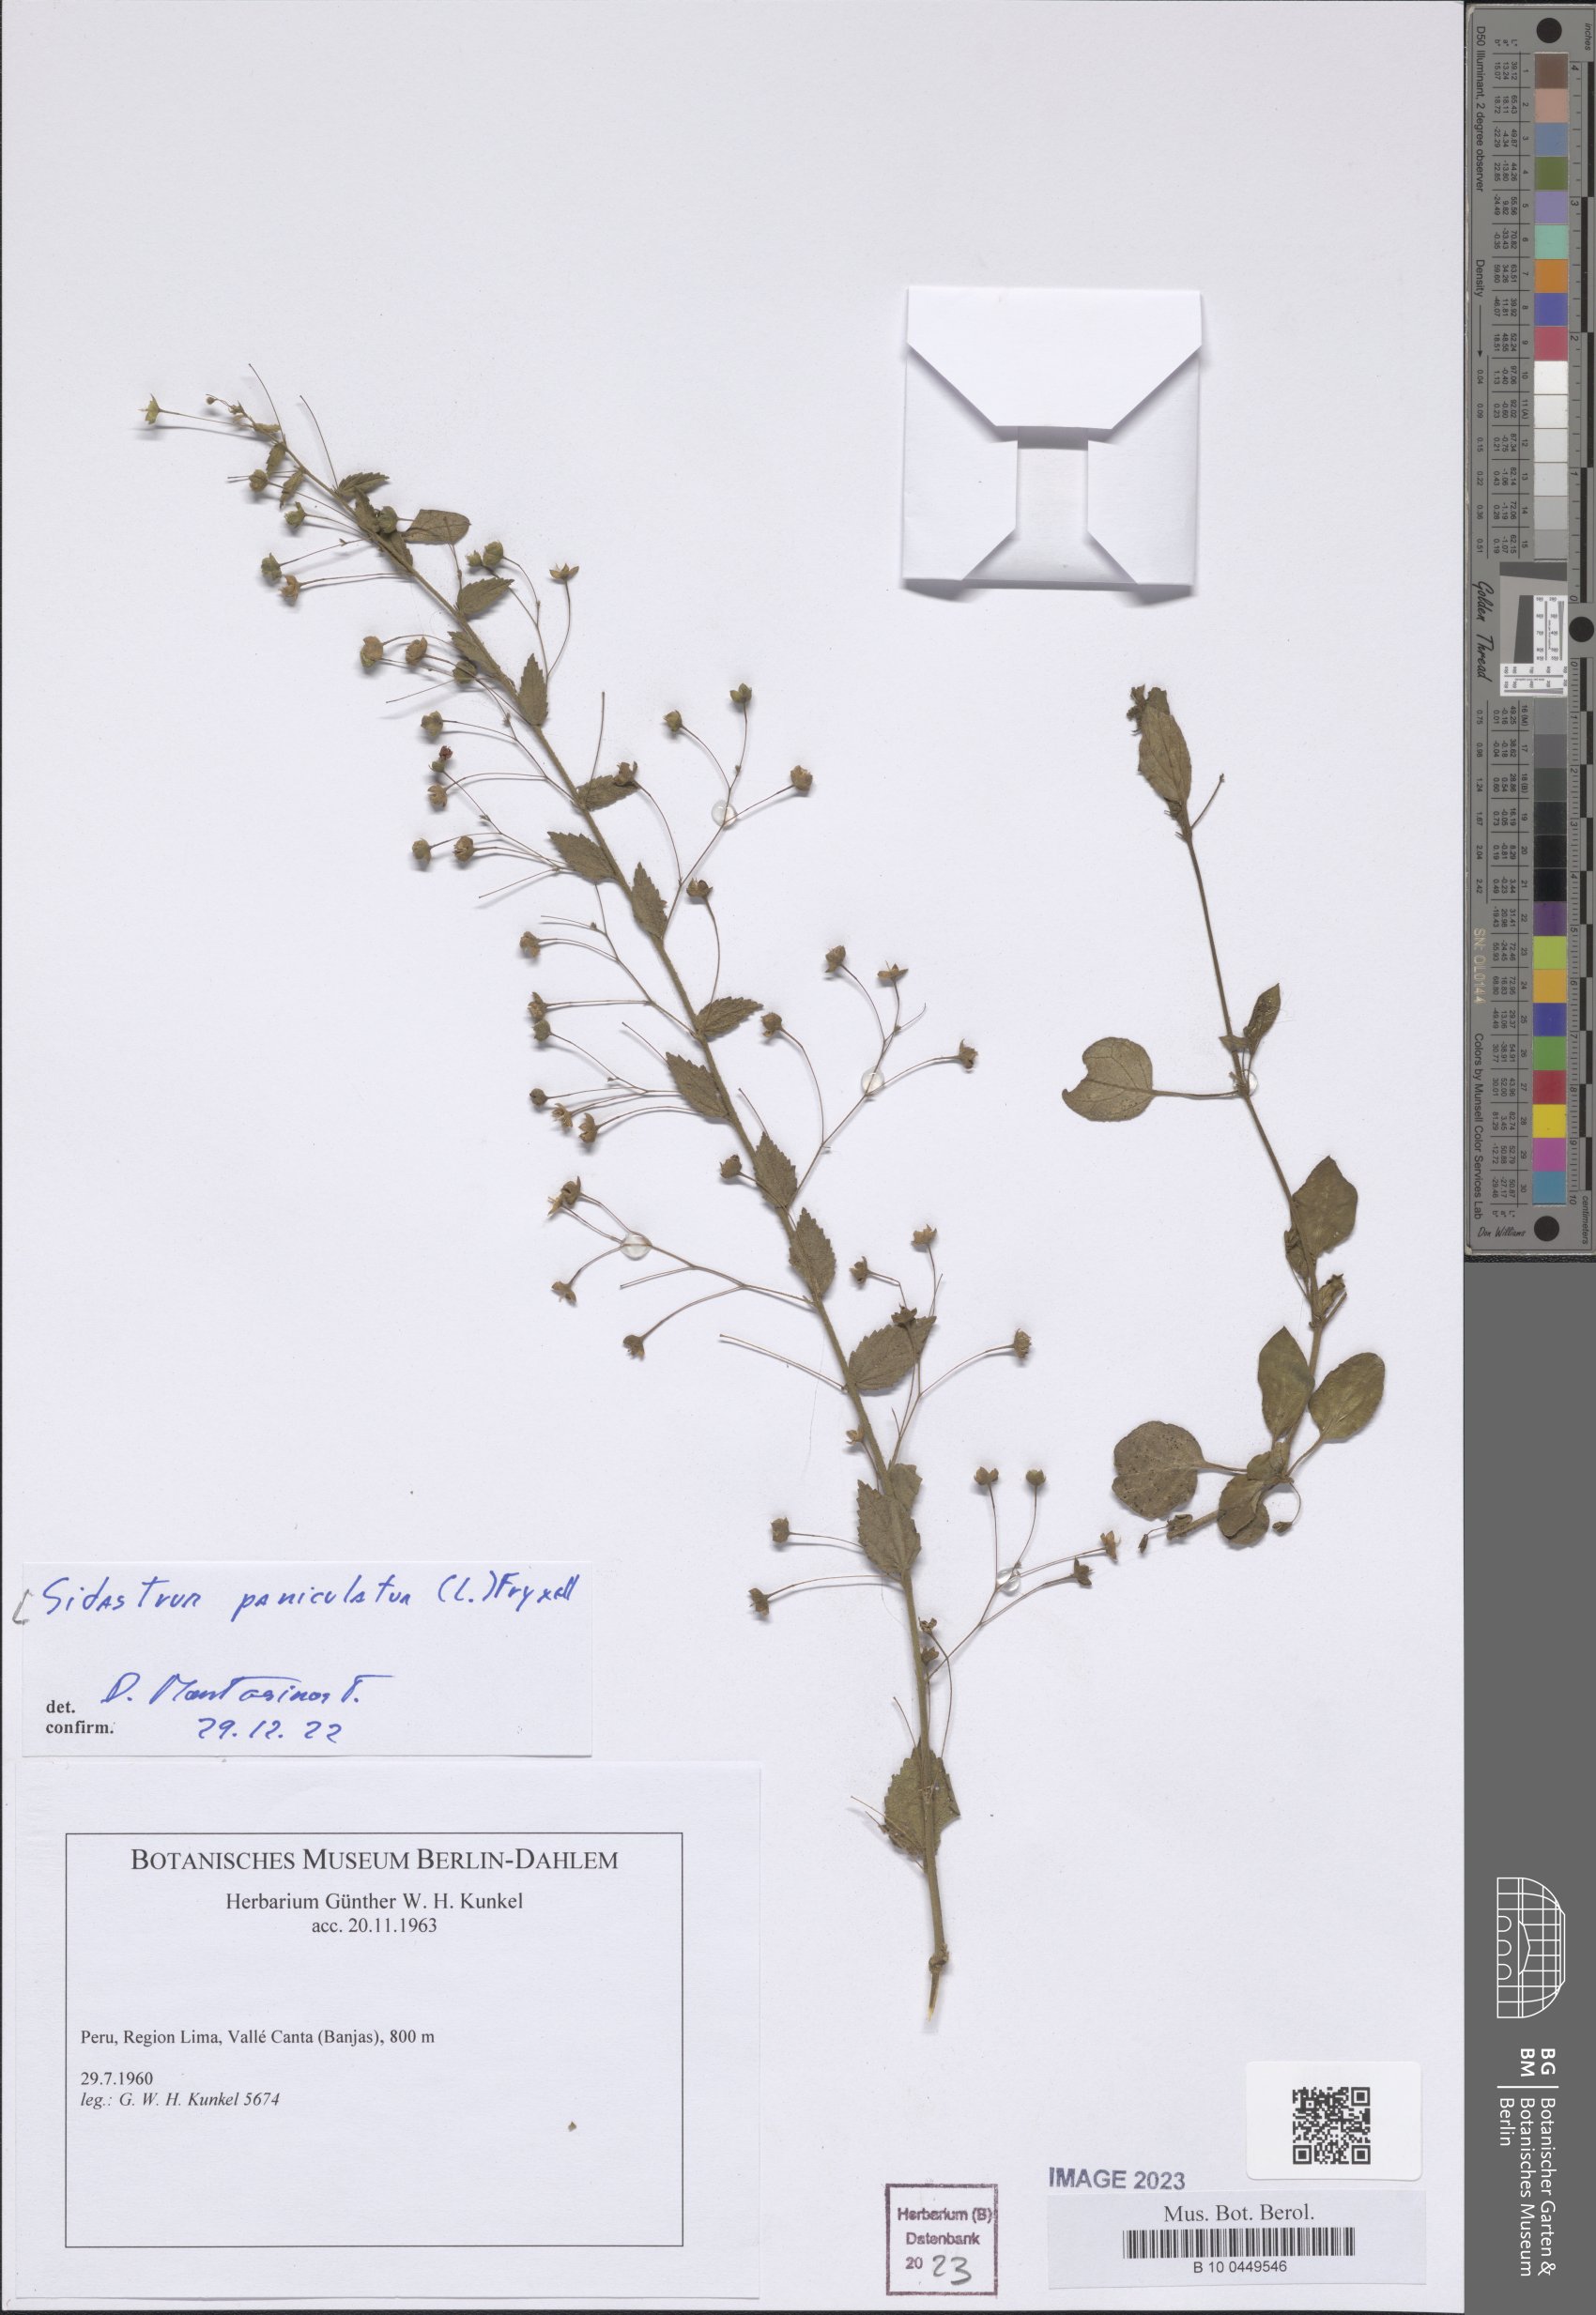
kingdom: Plantae
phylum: Tracheophyta
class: Magnoliopsida
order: Malvales
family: Malvaceae
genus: Sidastrum
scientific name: Sidastrum paniculatum
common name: Panicled sandmallow
